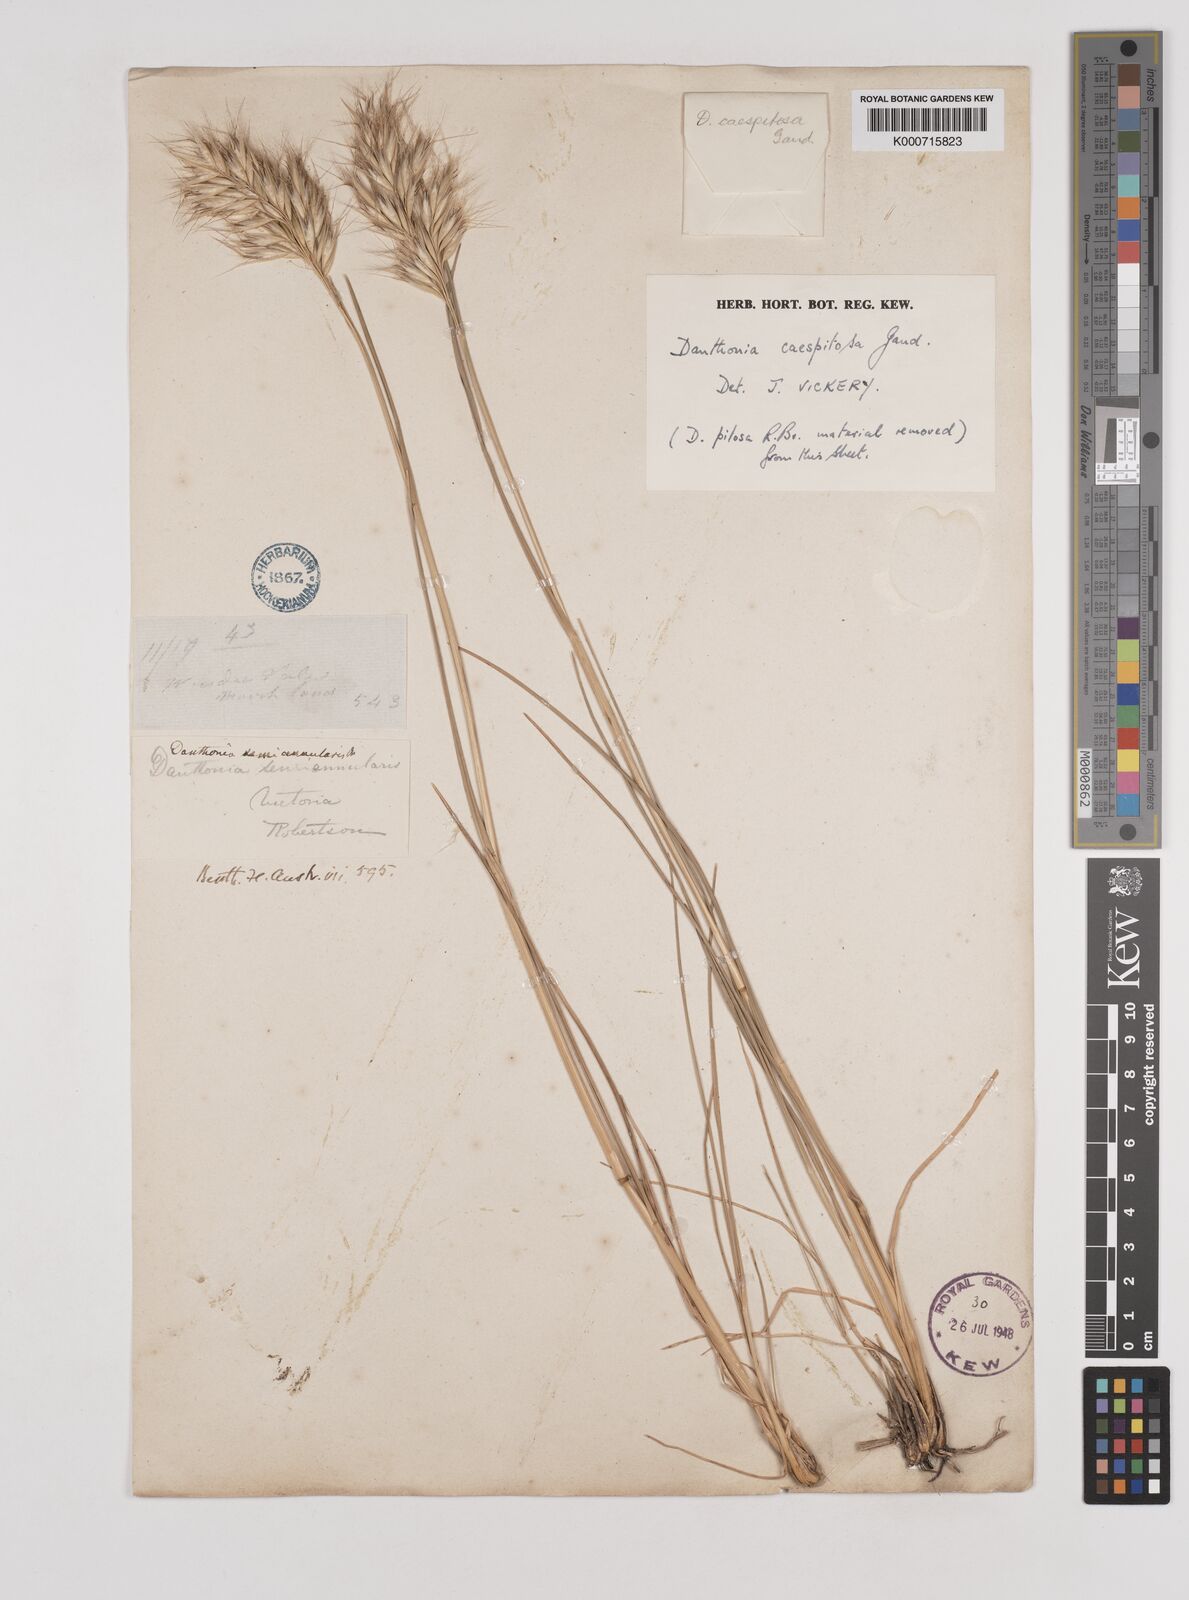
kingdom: Plantae
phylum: Tracheophyta
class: Liliopsida
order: Poales
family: Poaceae
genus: Rytidosperma
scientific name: Rytidosperma caespitosum
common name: Tufted wallaby grass
